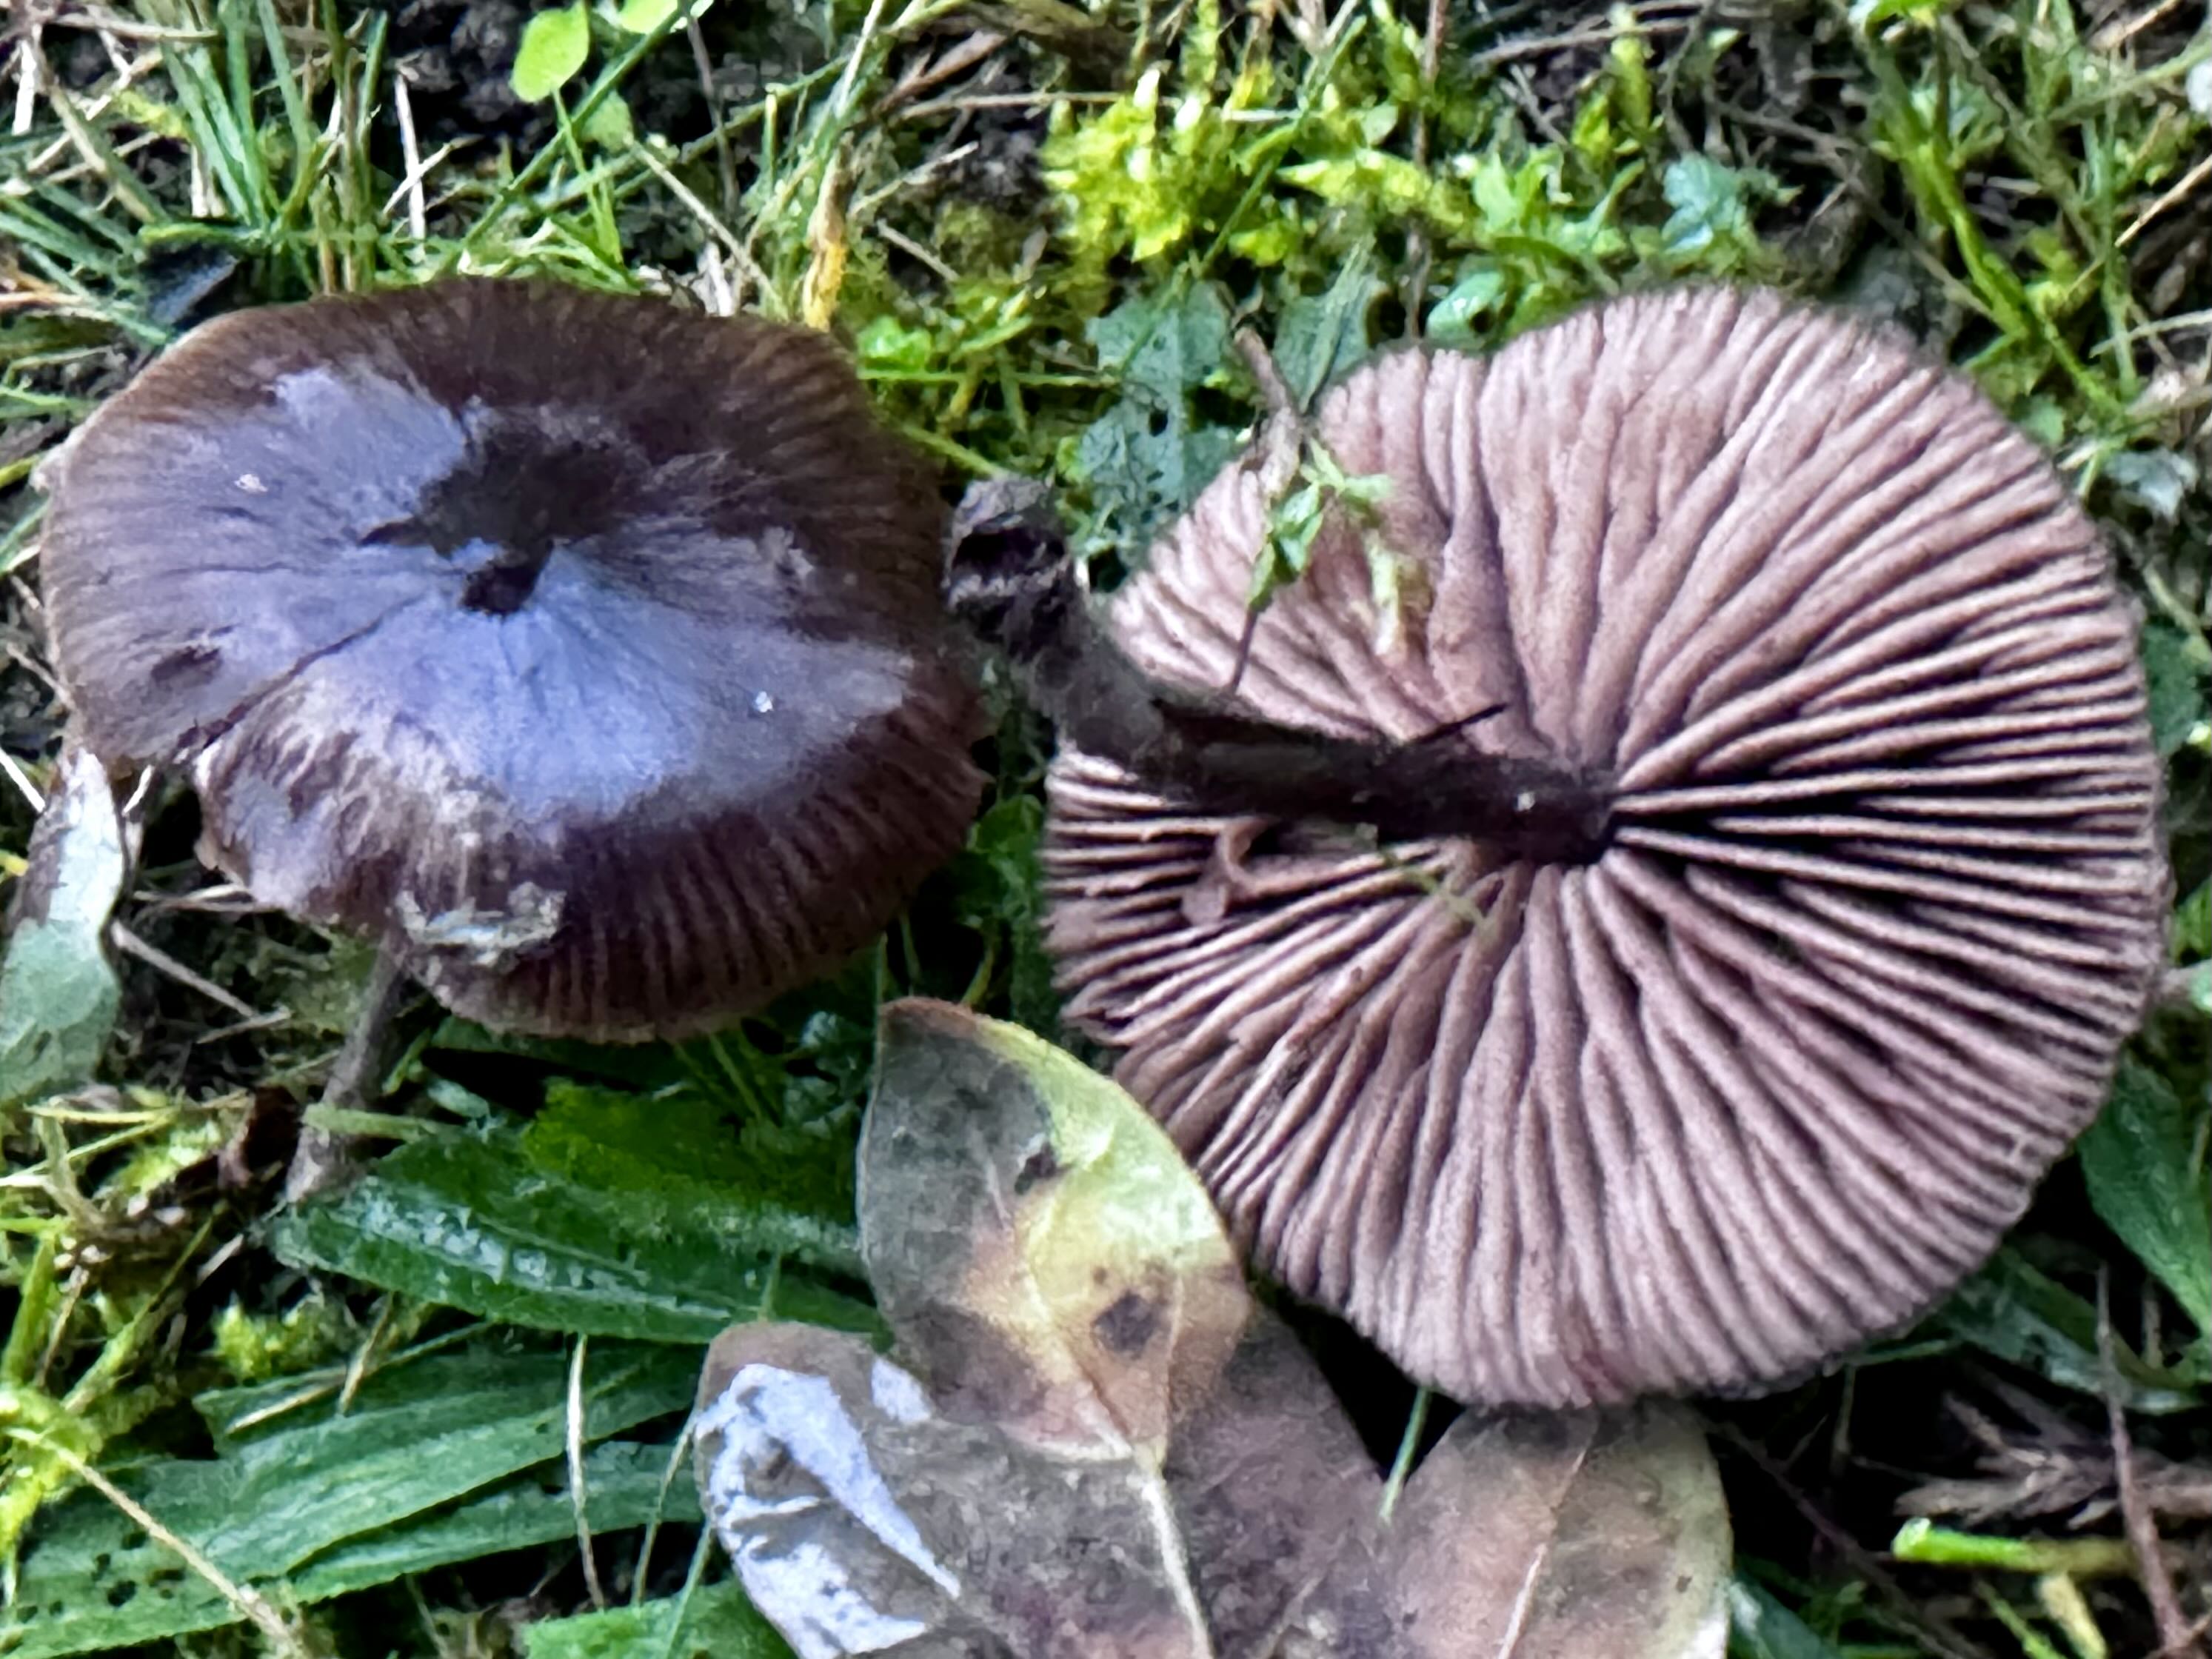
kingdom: Fungi
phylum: Basidiomycota
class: Agaricomycetes
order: Agaricales
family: Entolomataceae
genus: Entoloma
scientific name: Entoloma sericeum
